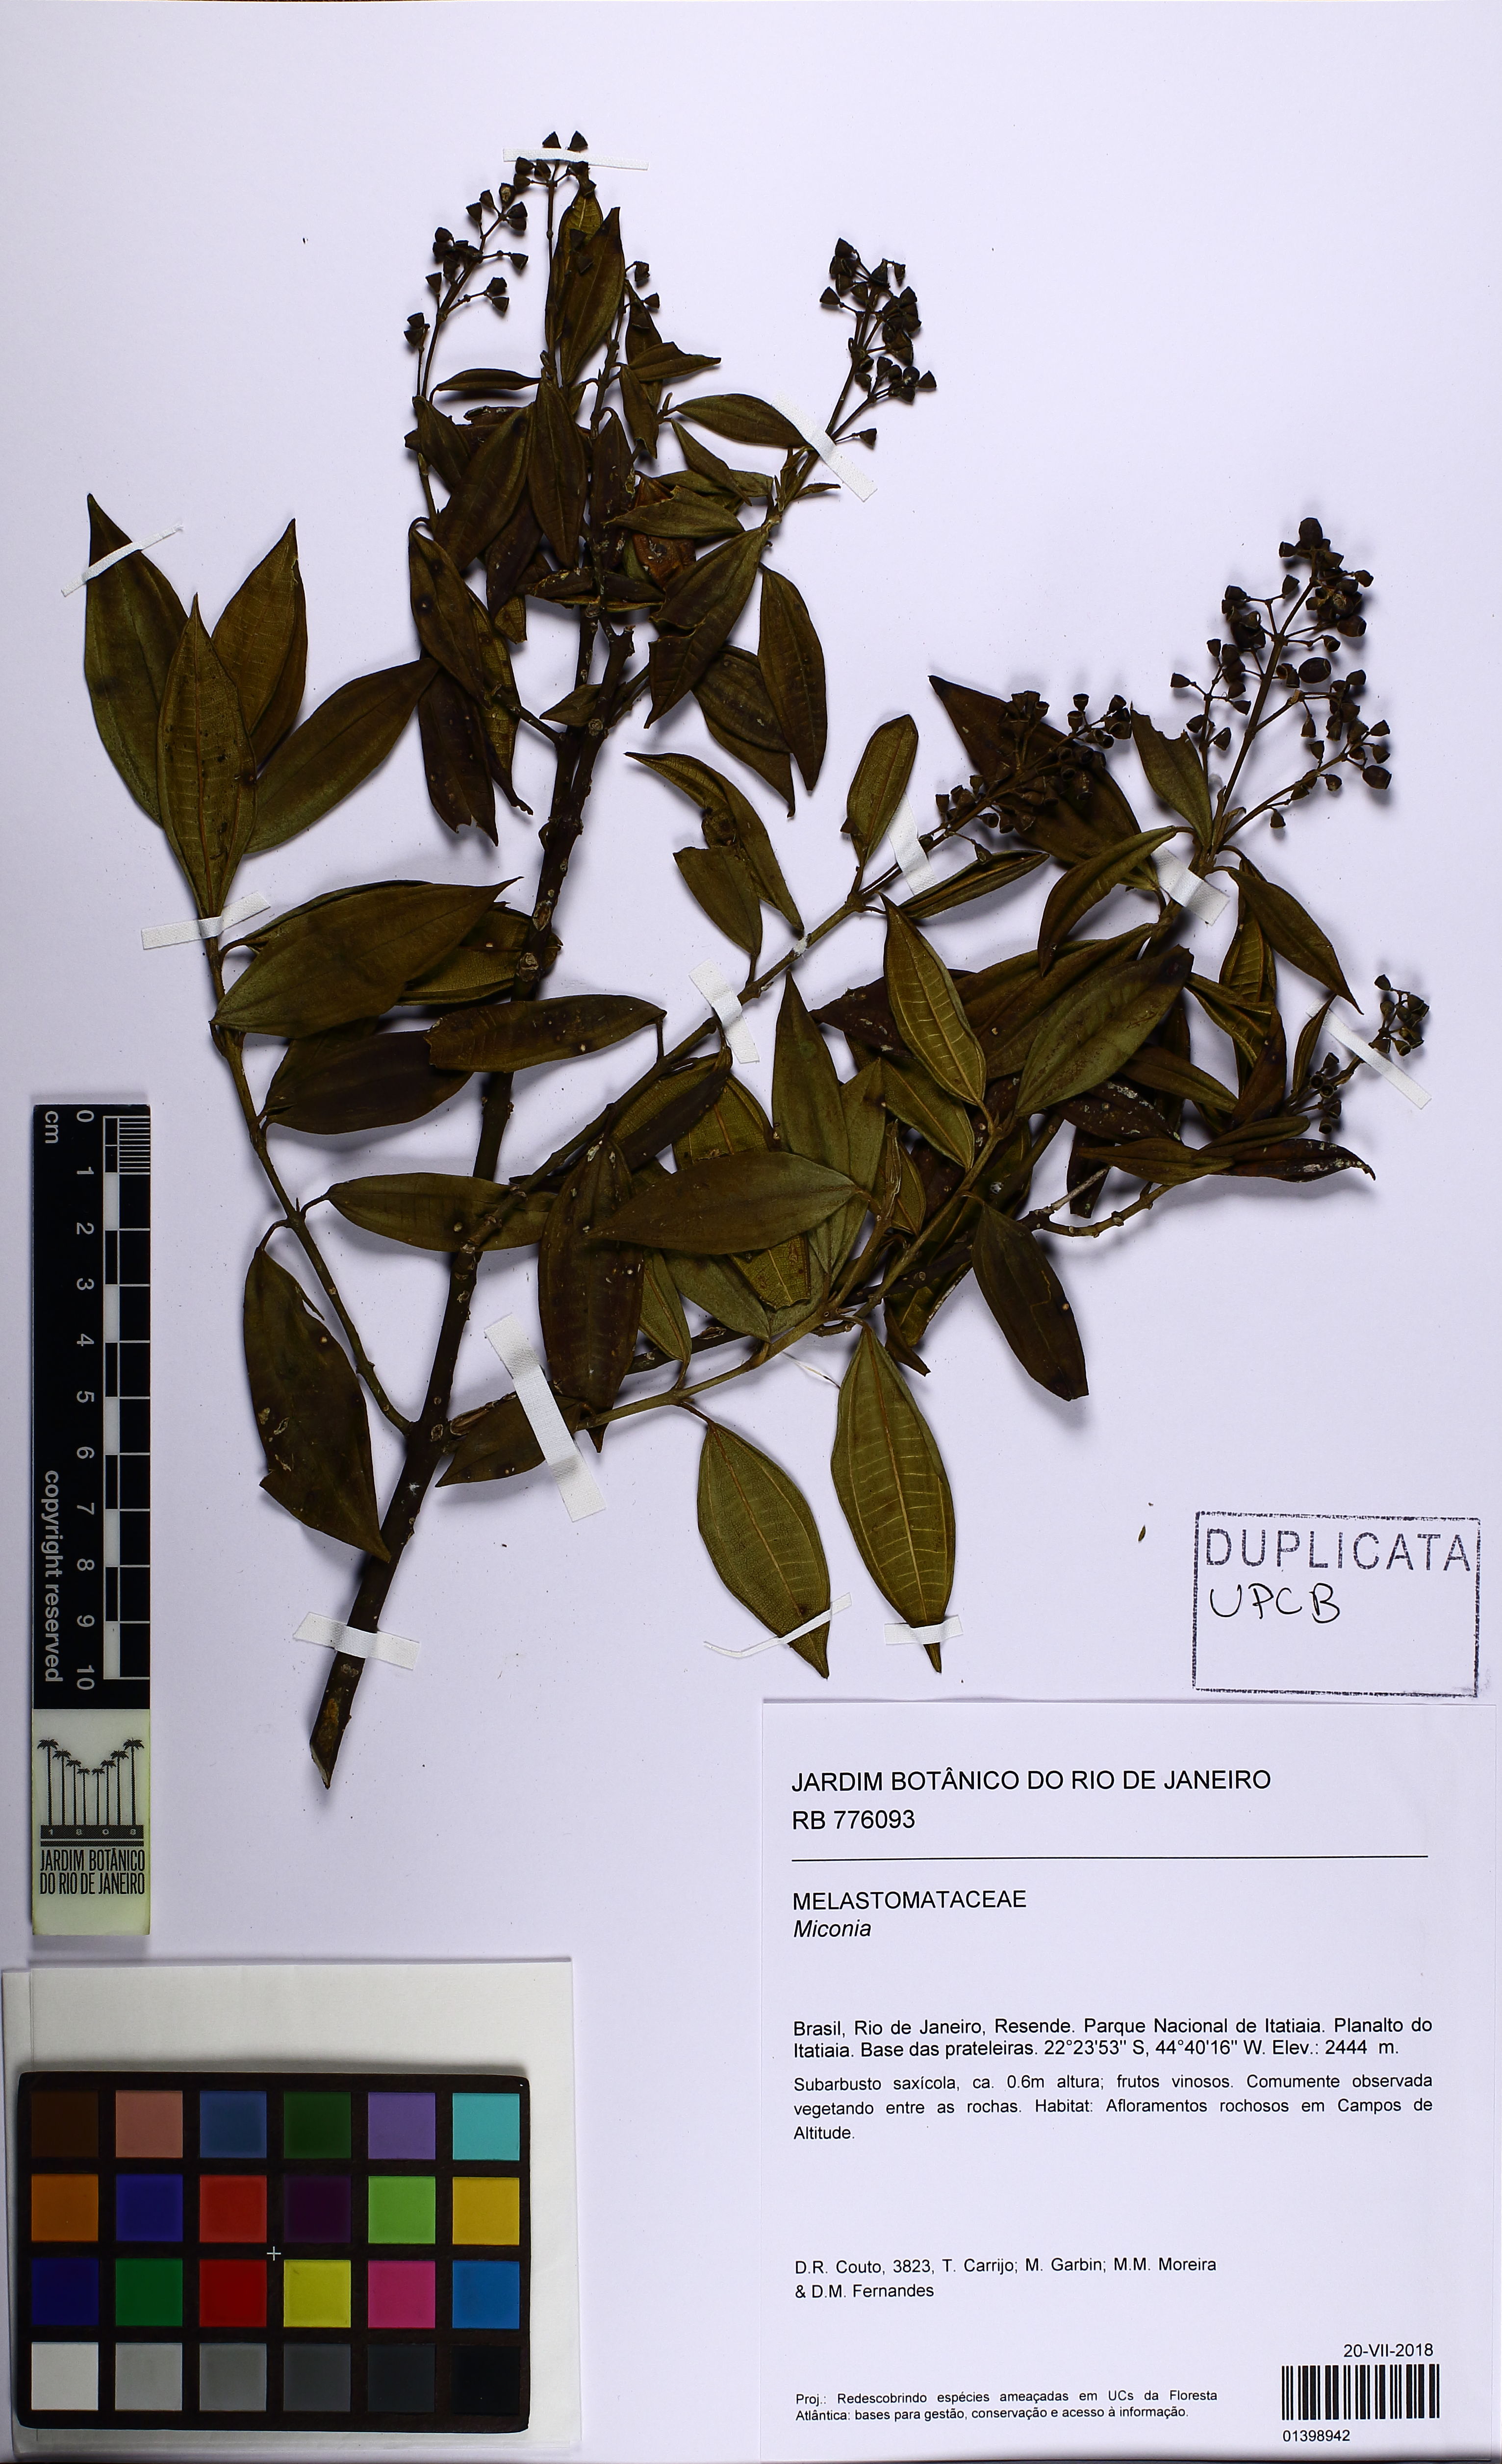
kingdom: Plantae
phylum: Tracheophyta
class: Magnoliopsida
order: Myrtales
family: Melastomataceae
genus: Miconia
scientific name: Miconia
